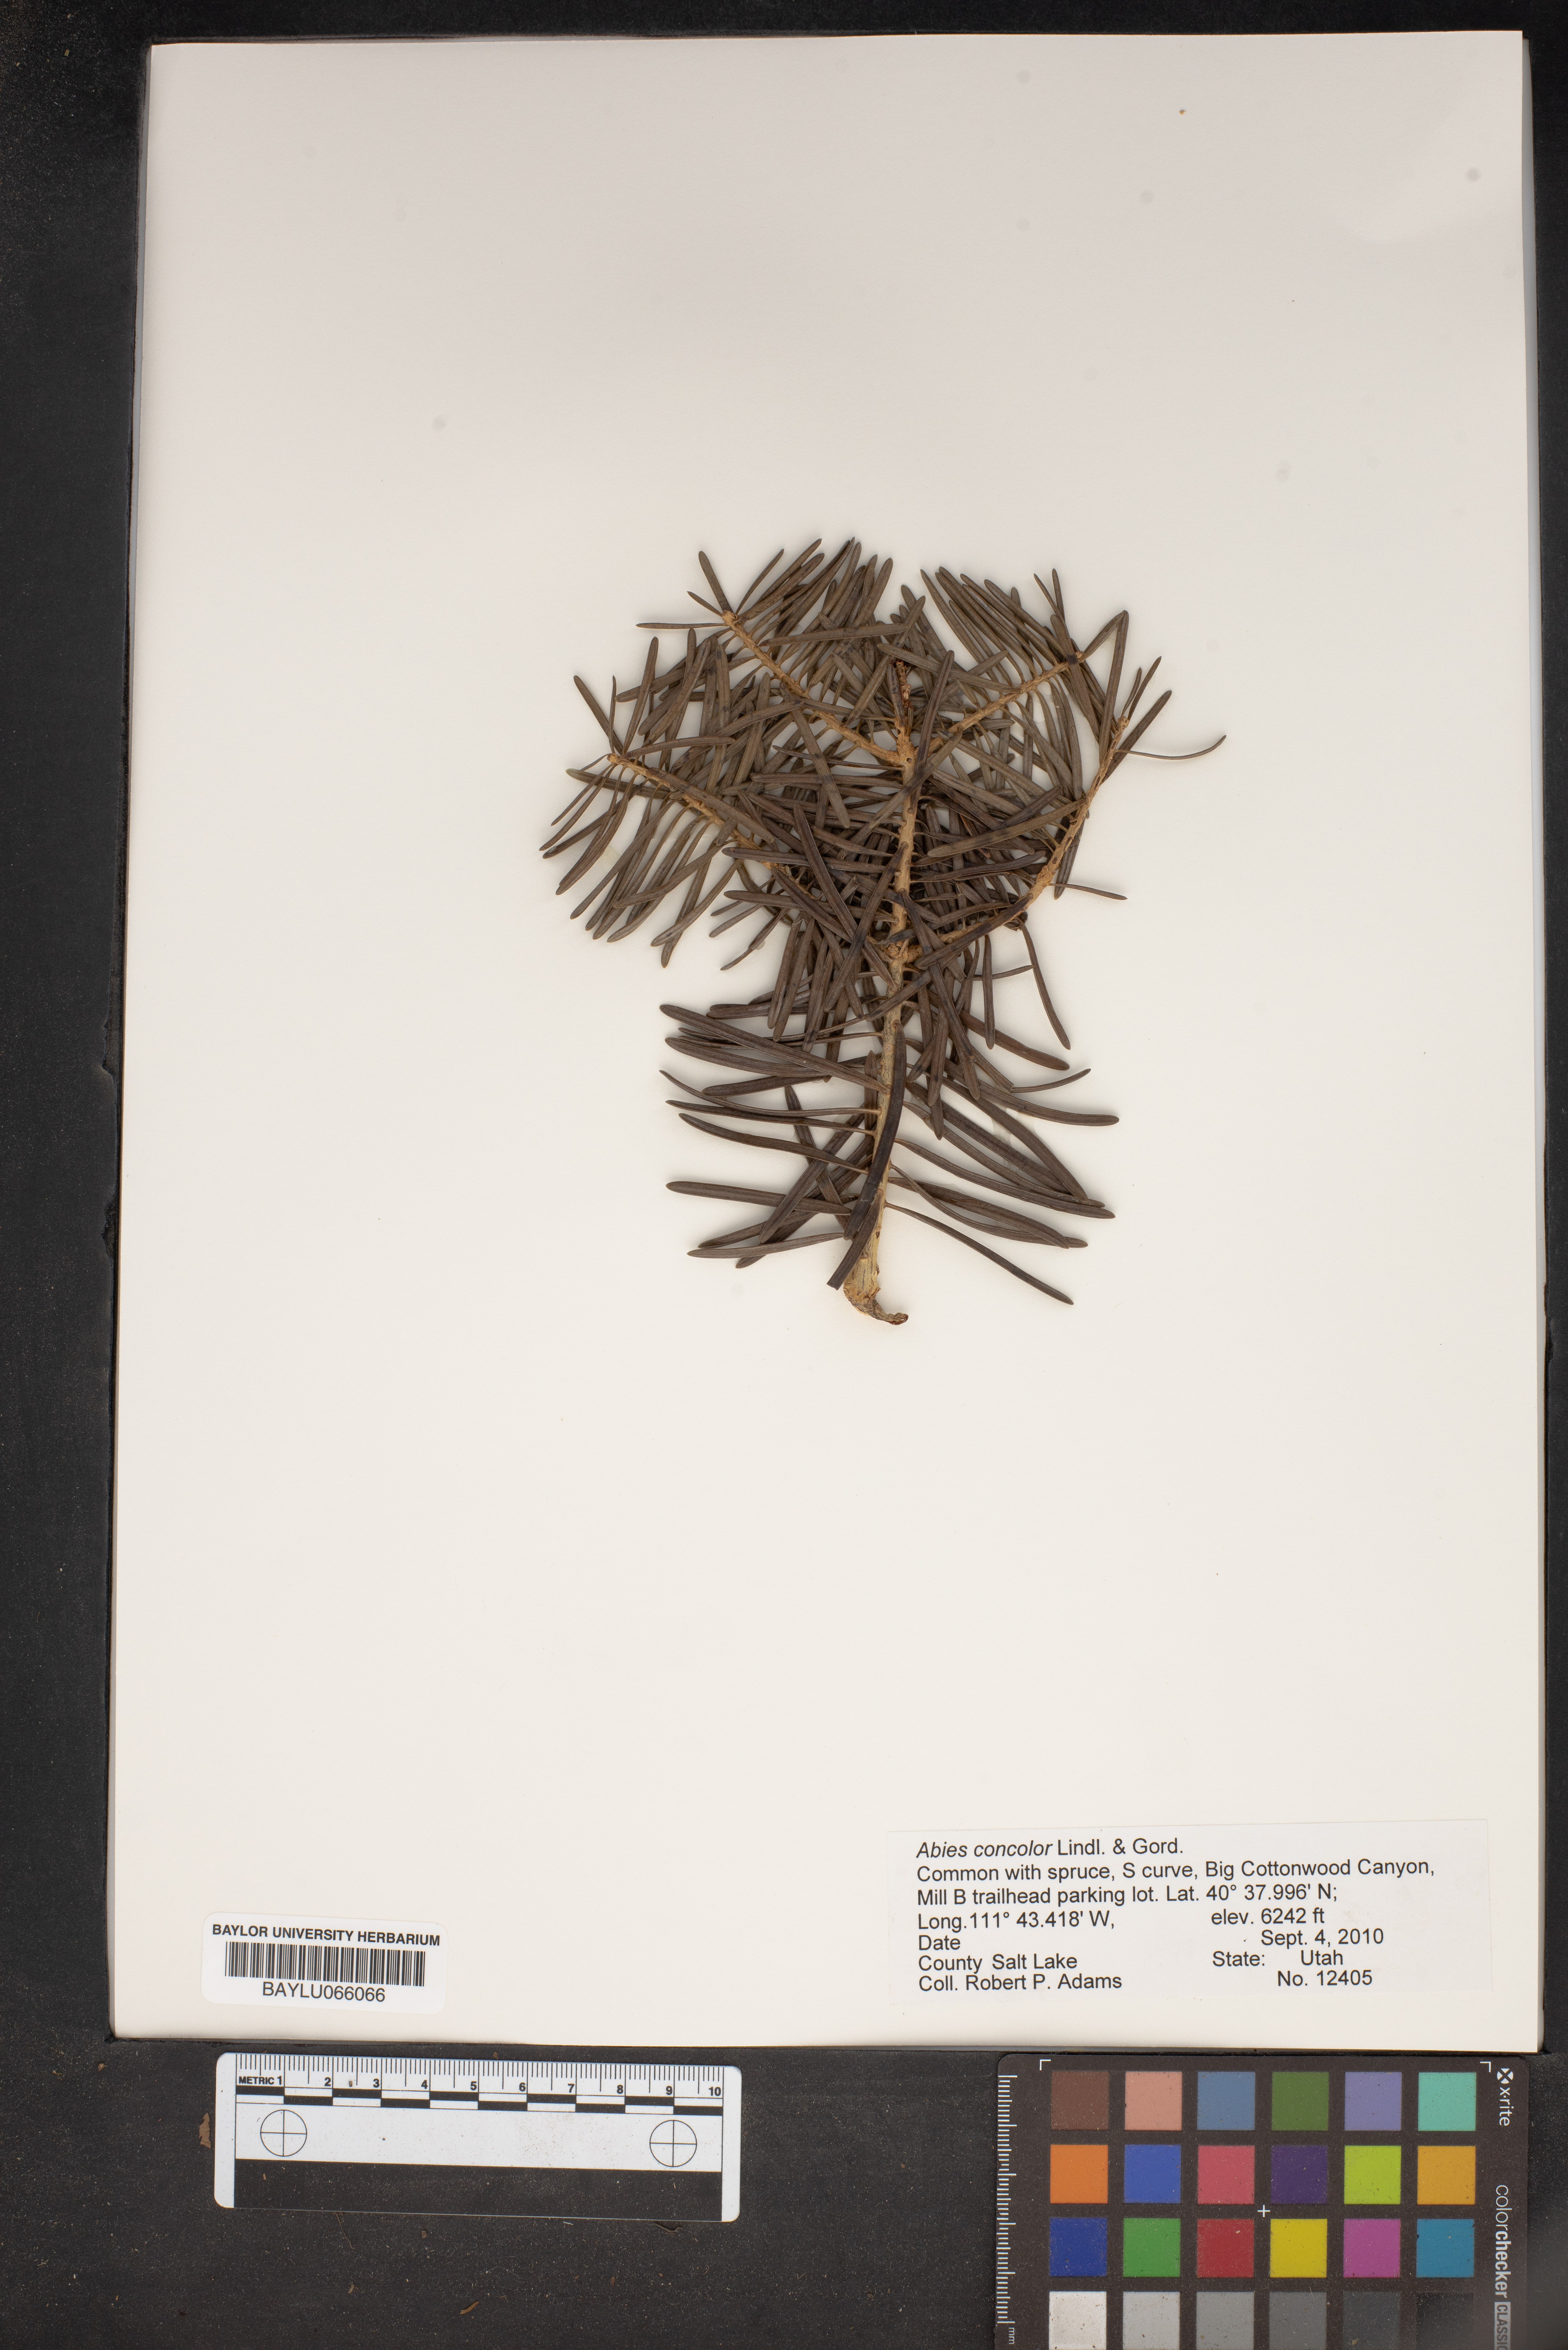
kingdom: Plantae
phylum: Tracheophyta
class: Pinopsida
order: Pinales
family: Pinaceae
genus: Abies
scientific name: Abies concolor
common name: Colorado fir
